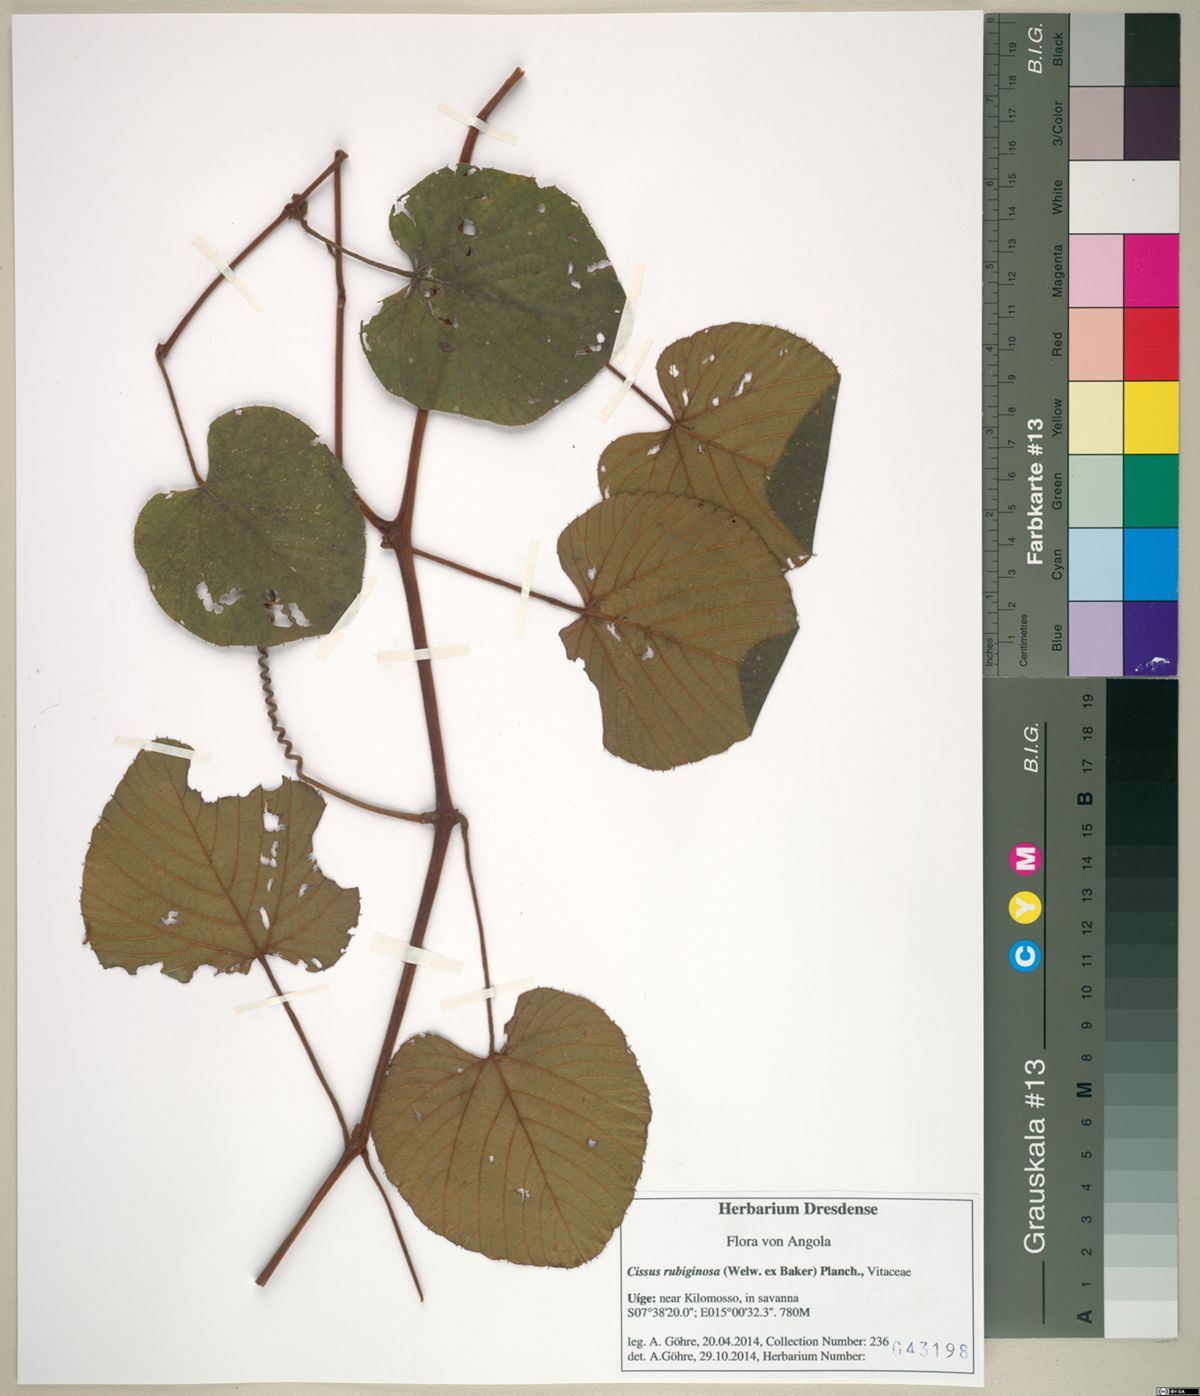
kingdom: Plantae
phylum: Tracheophyta
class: Magnoliopsida
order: Vitales
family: Vitaceae
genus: Cissus
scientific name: Cissus rubiginosa
